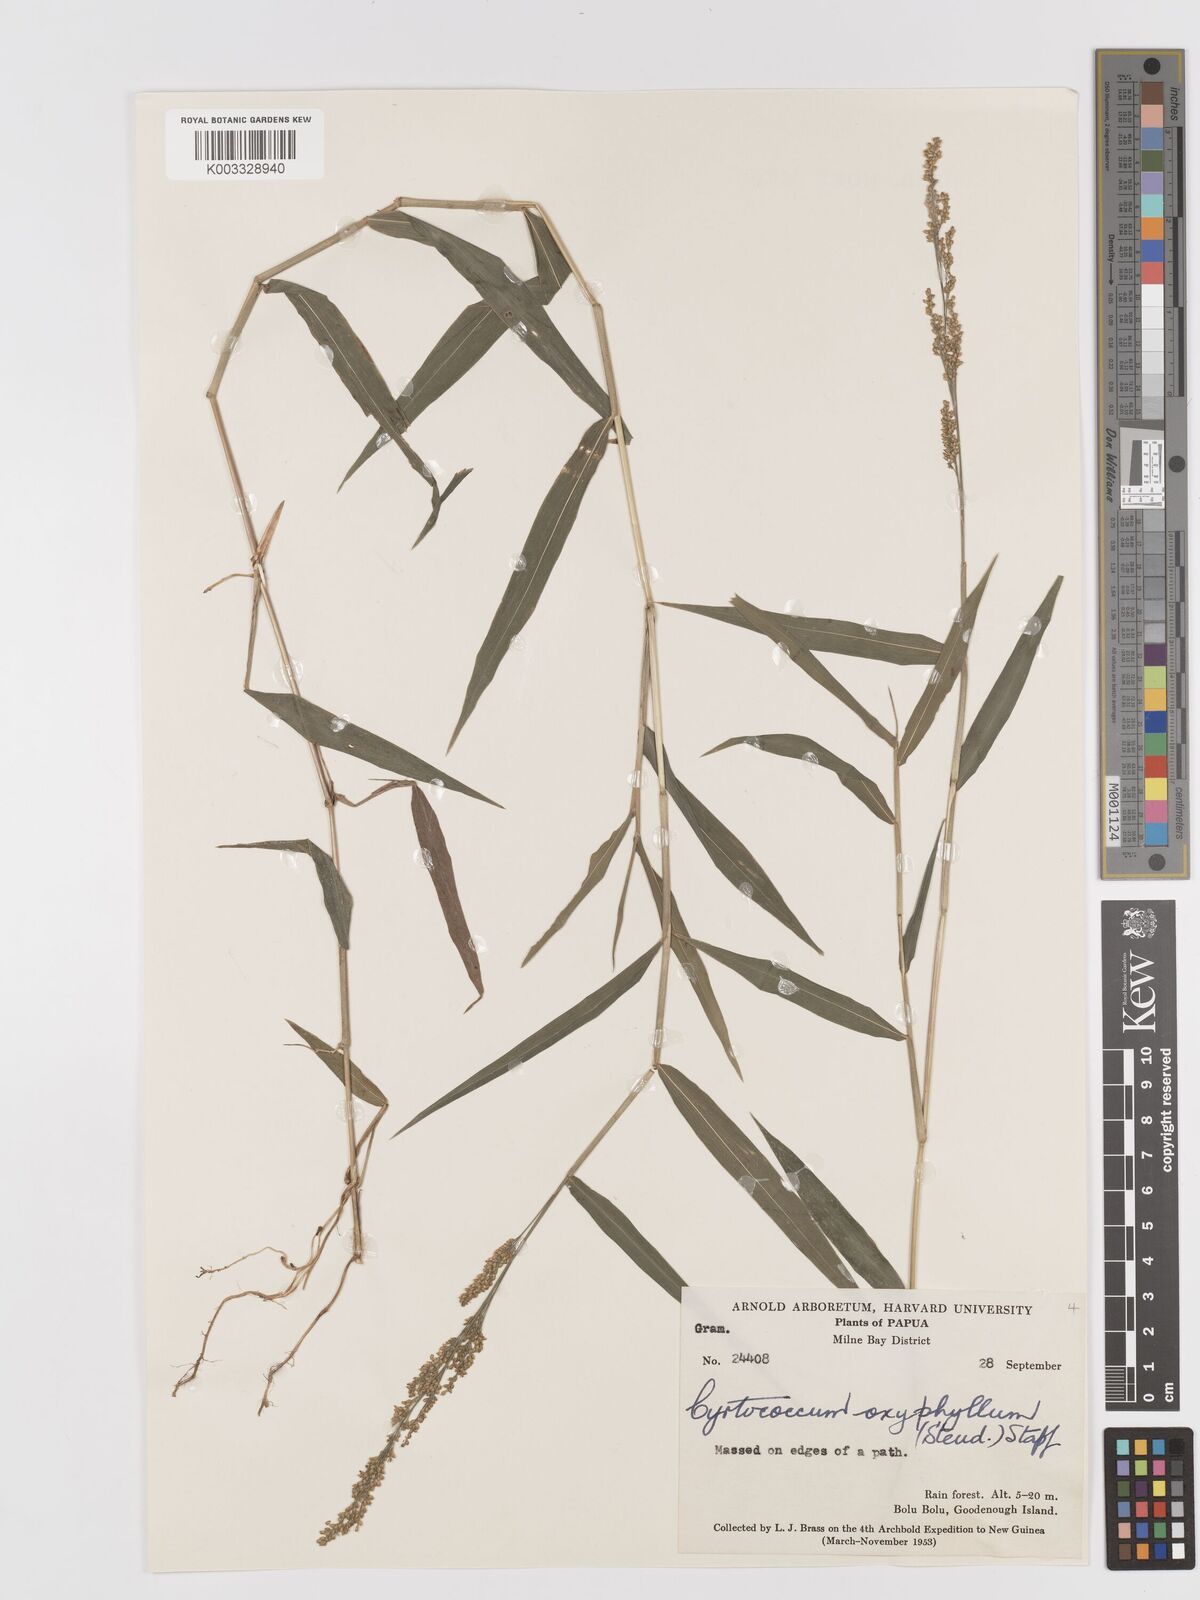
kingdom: Plantae
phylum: Tracheophyta
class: Liliopsida
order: Poales
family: Poaceae
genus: Cyrtococcum
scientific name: Cyrtococcum oxyphyllum
